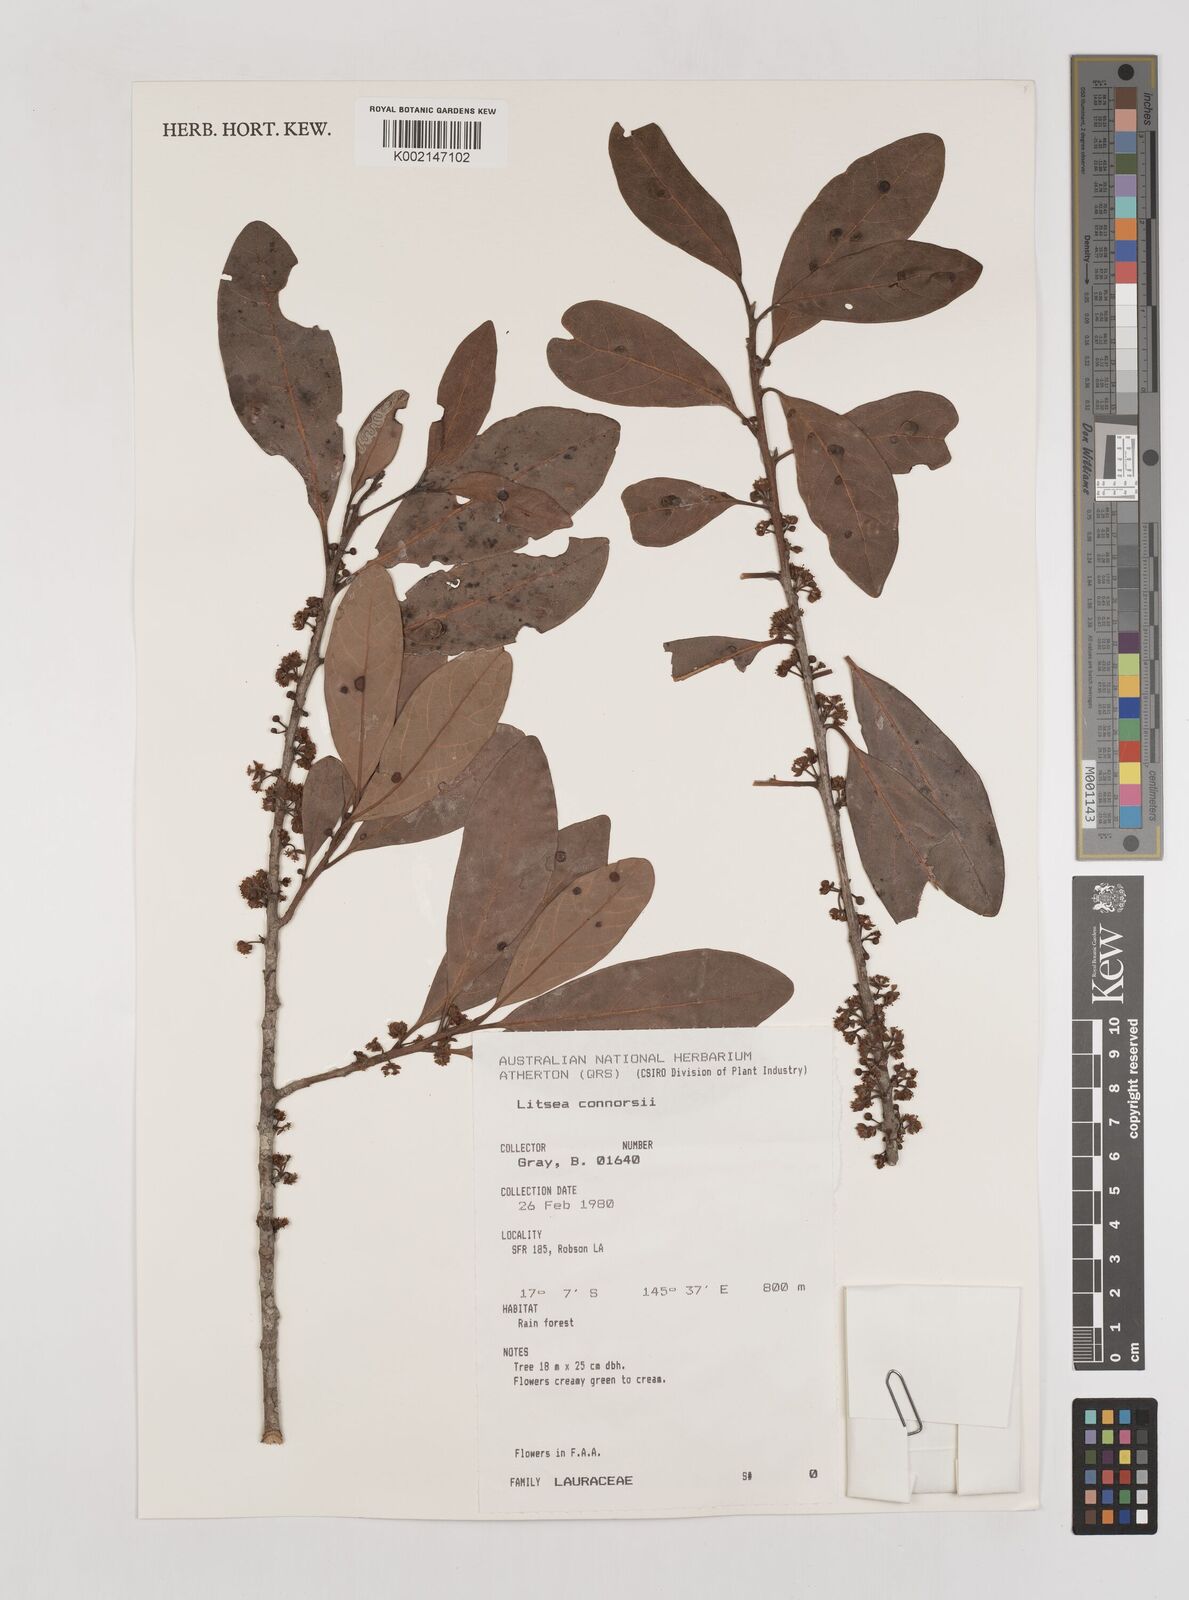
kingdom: Plantae
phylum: Tracheophyta
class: Magnoliopsida
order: Laurales
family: Lauraceae
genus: Litsea
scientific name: Litsea connorsii
